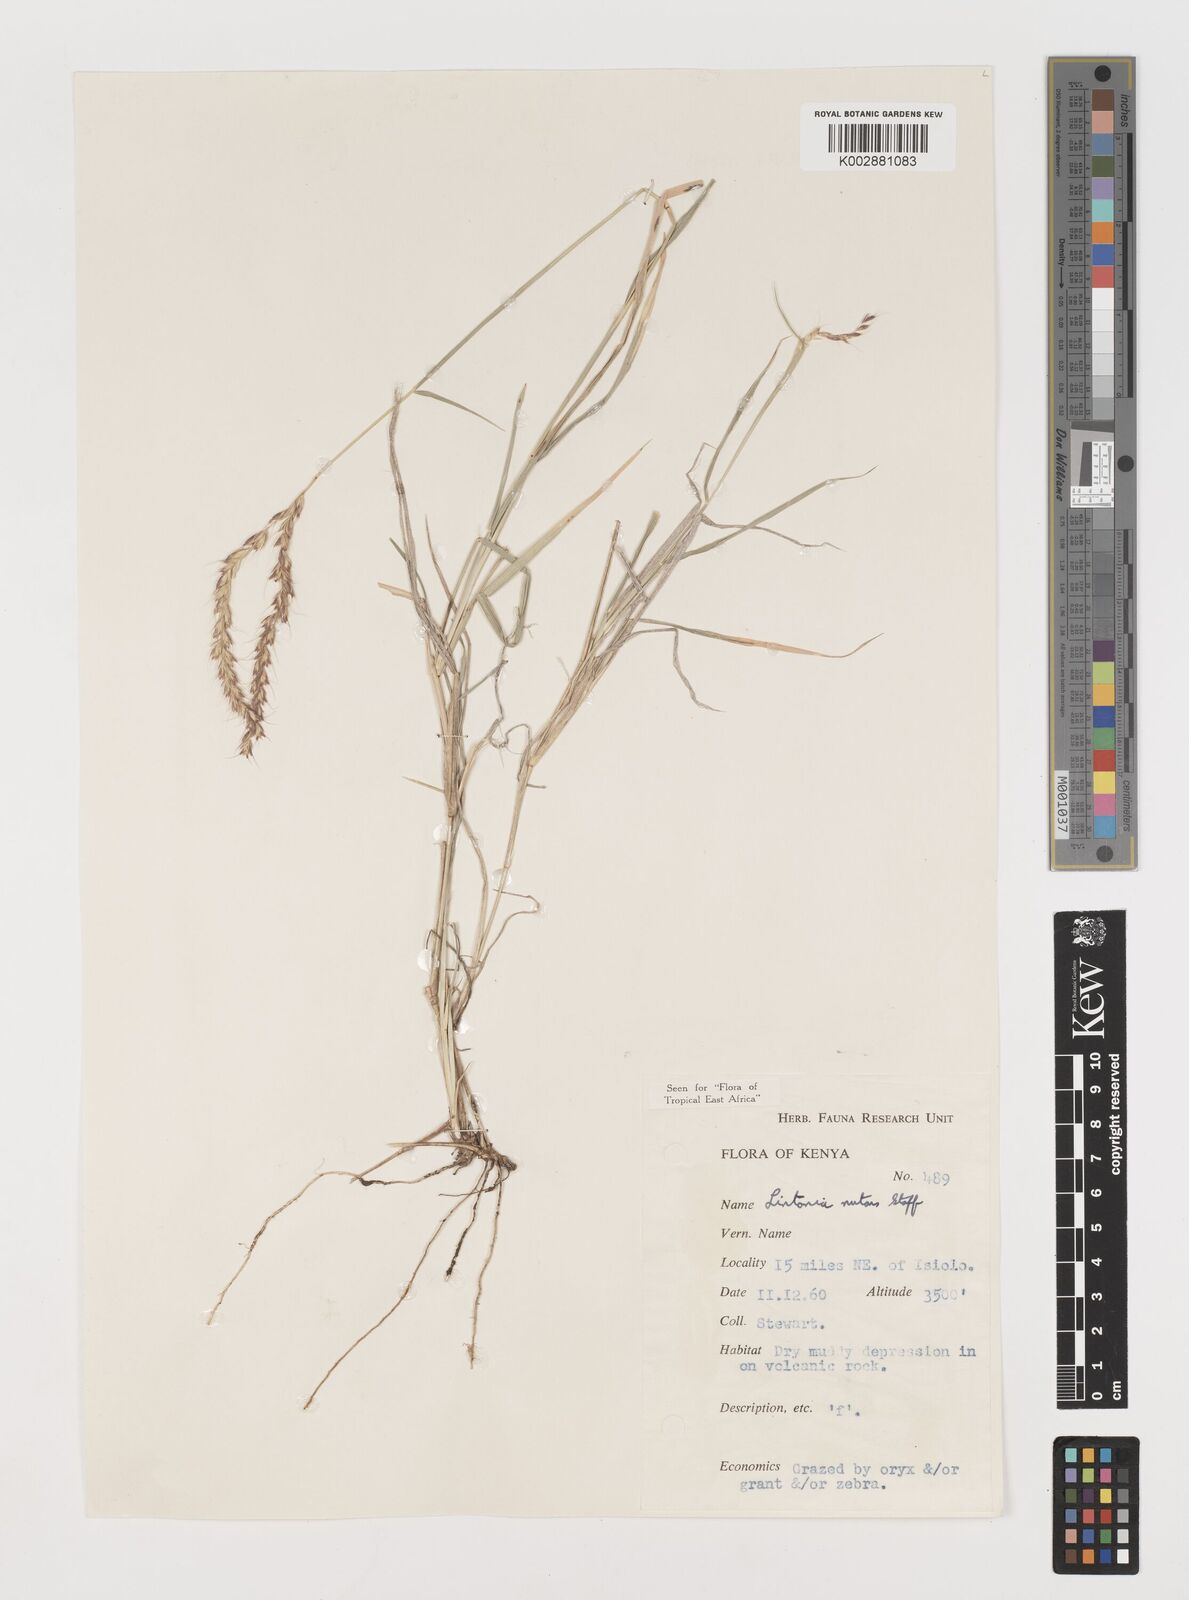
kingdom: Plantae
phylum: Tracheophyta
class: Liliopsida
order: Poales
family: Poaceae
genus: Chloris
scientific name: Chloris nutans
